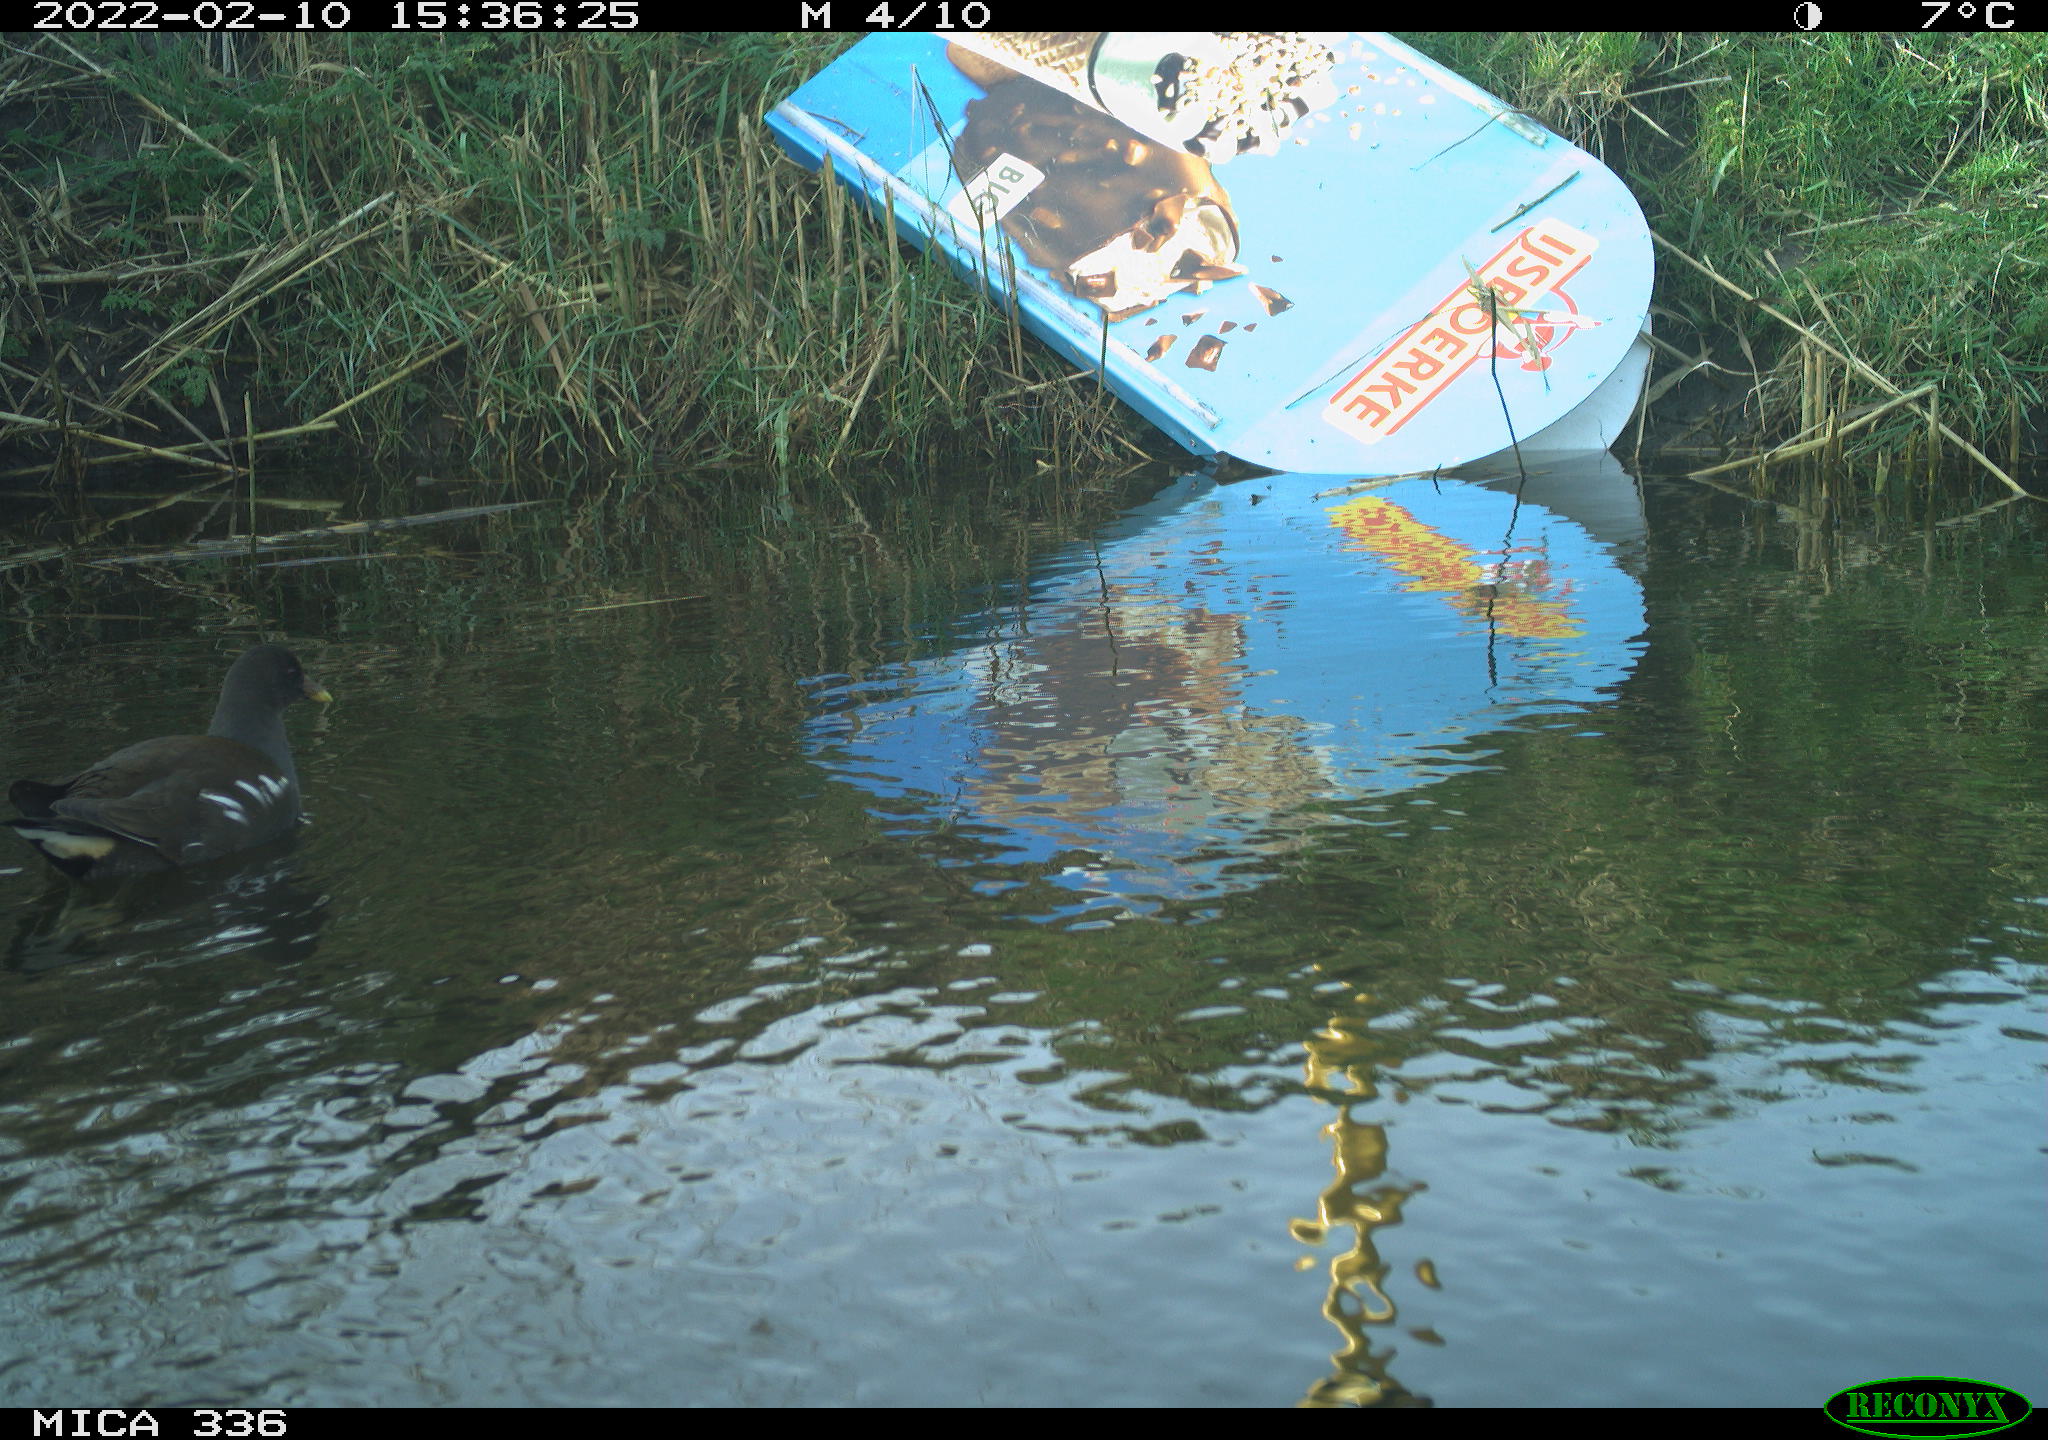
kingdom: Animalia
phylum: Chordata
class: Aves
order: Gruiformes
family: Rallidae
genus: Gallinula
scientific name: Gallinula chloropus
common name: Common moorhen
